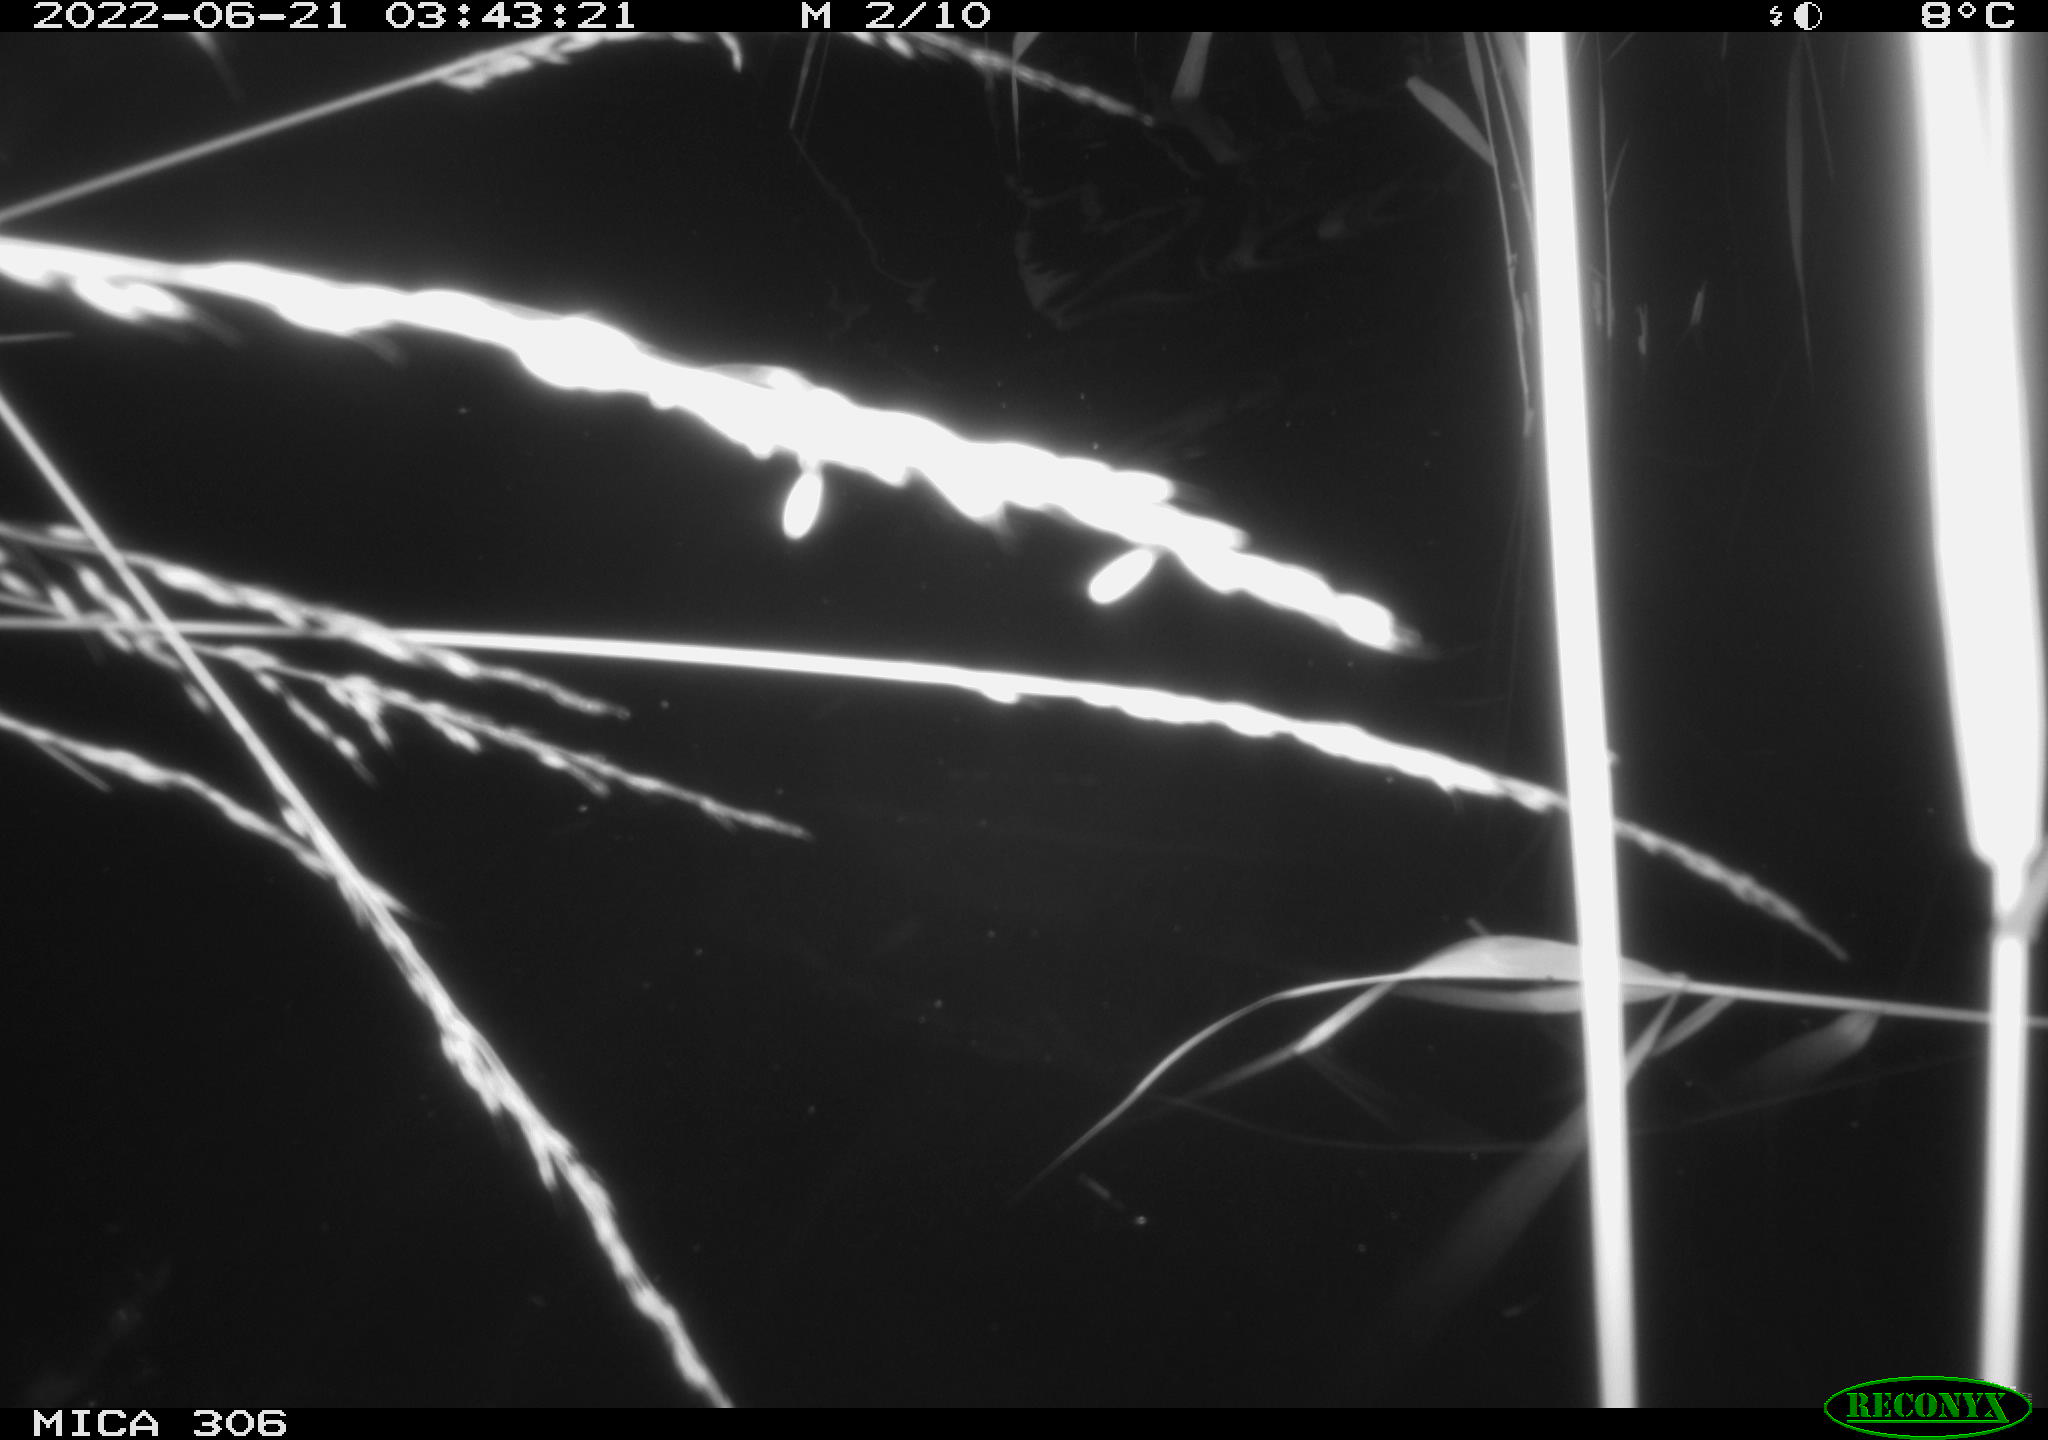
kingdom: Animalia
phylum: Chordata
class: Mammalia
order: Rodentia
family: Cricetidae
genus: Ondatra
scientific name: Ondatra zibethicus
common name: Muskrat
